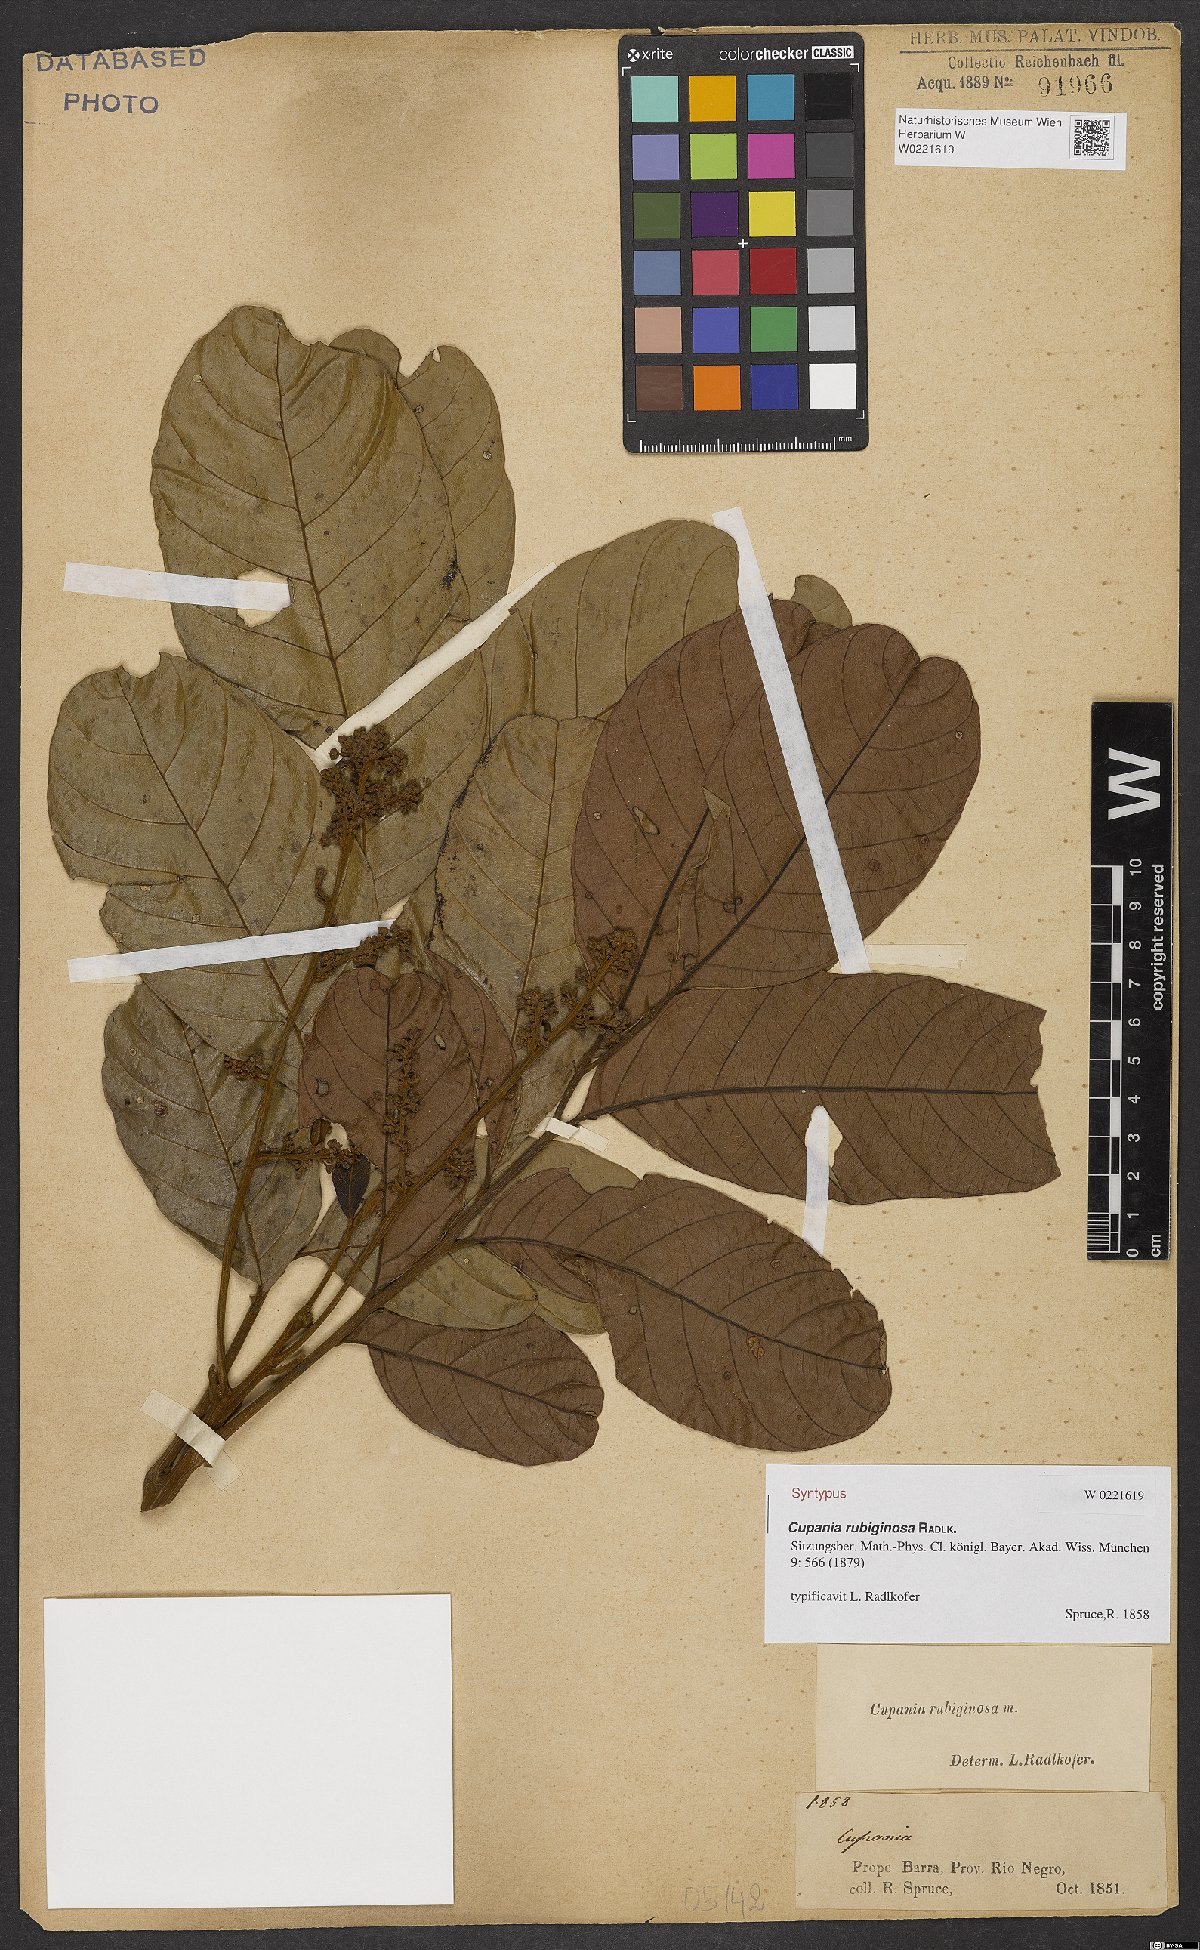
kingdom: Plantae
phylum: Tracheophyta
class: Magnoliopsida
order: Sapindales
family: Sapindaceae
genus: Cupania
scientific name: Cupania rubiginosa
